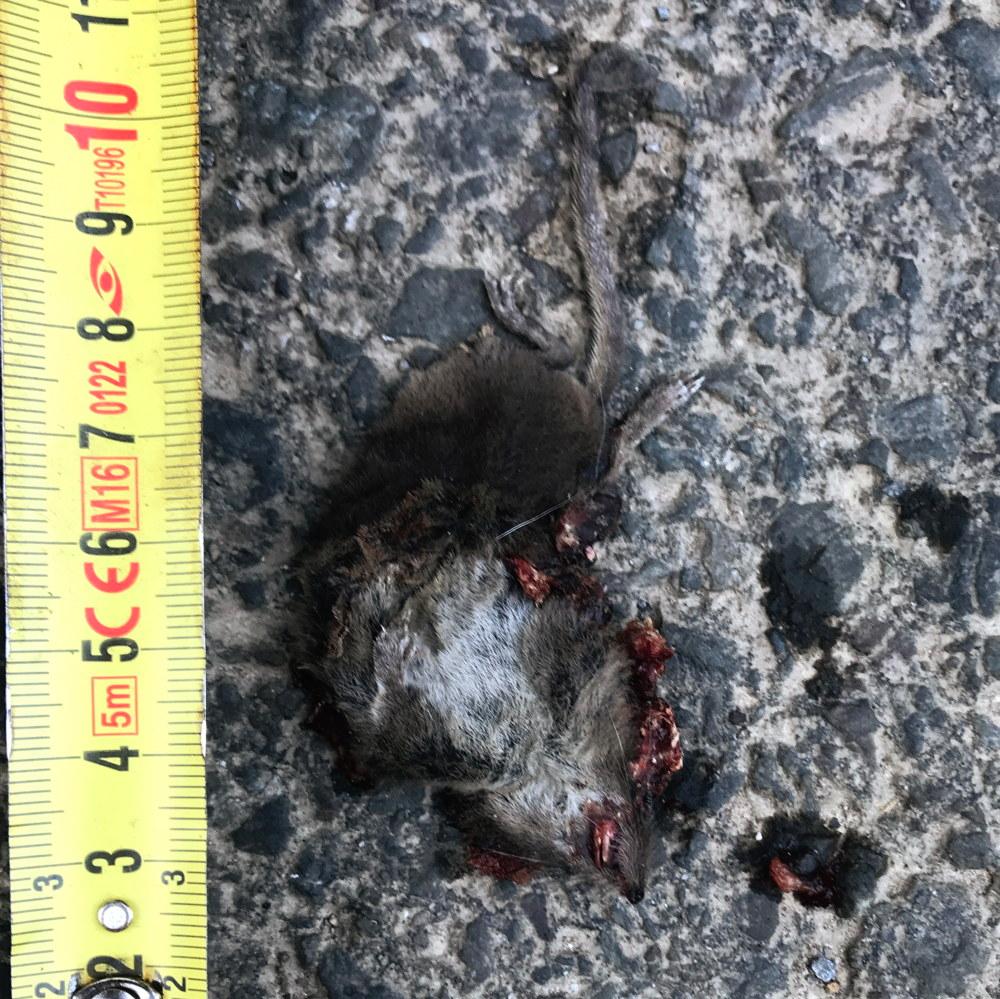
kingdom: Animalia
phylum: Chordata
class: Mammalia
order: Soricomorpha
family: Soricidae
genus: Sorex
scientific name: Sorex araneus
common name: Common shrew
